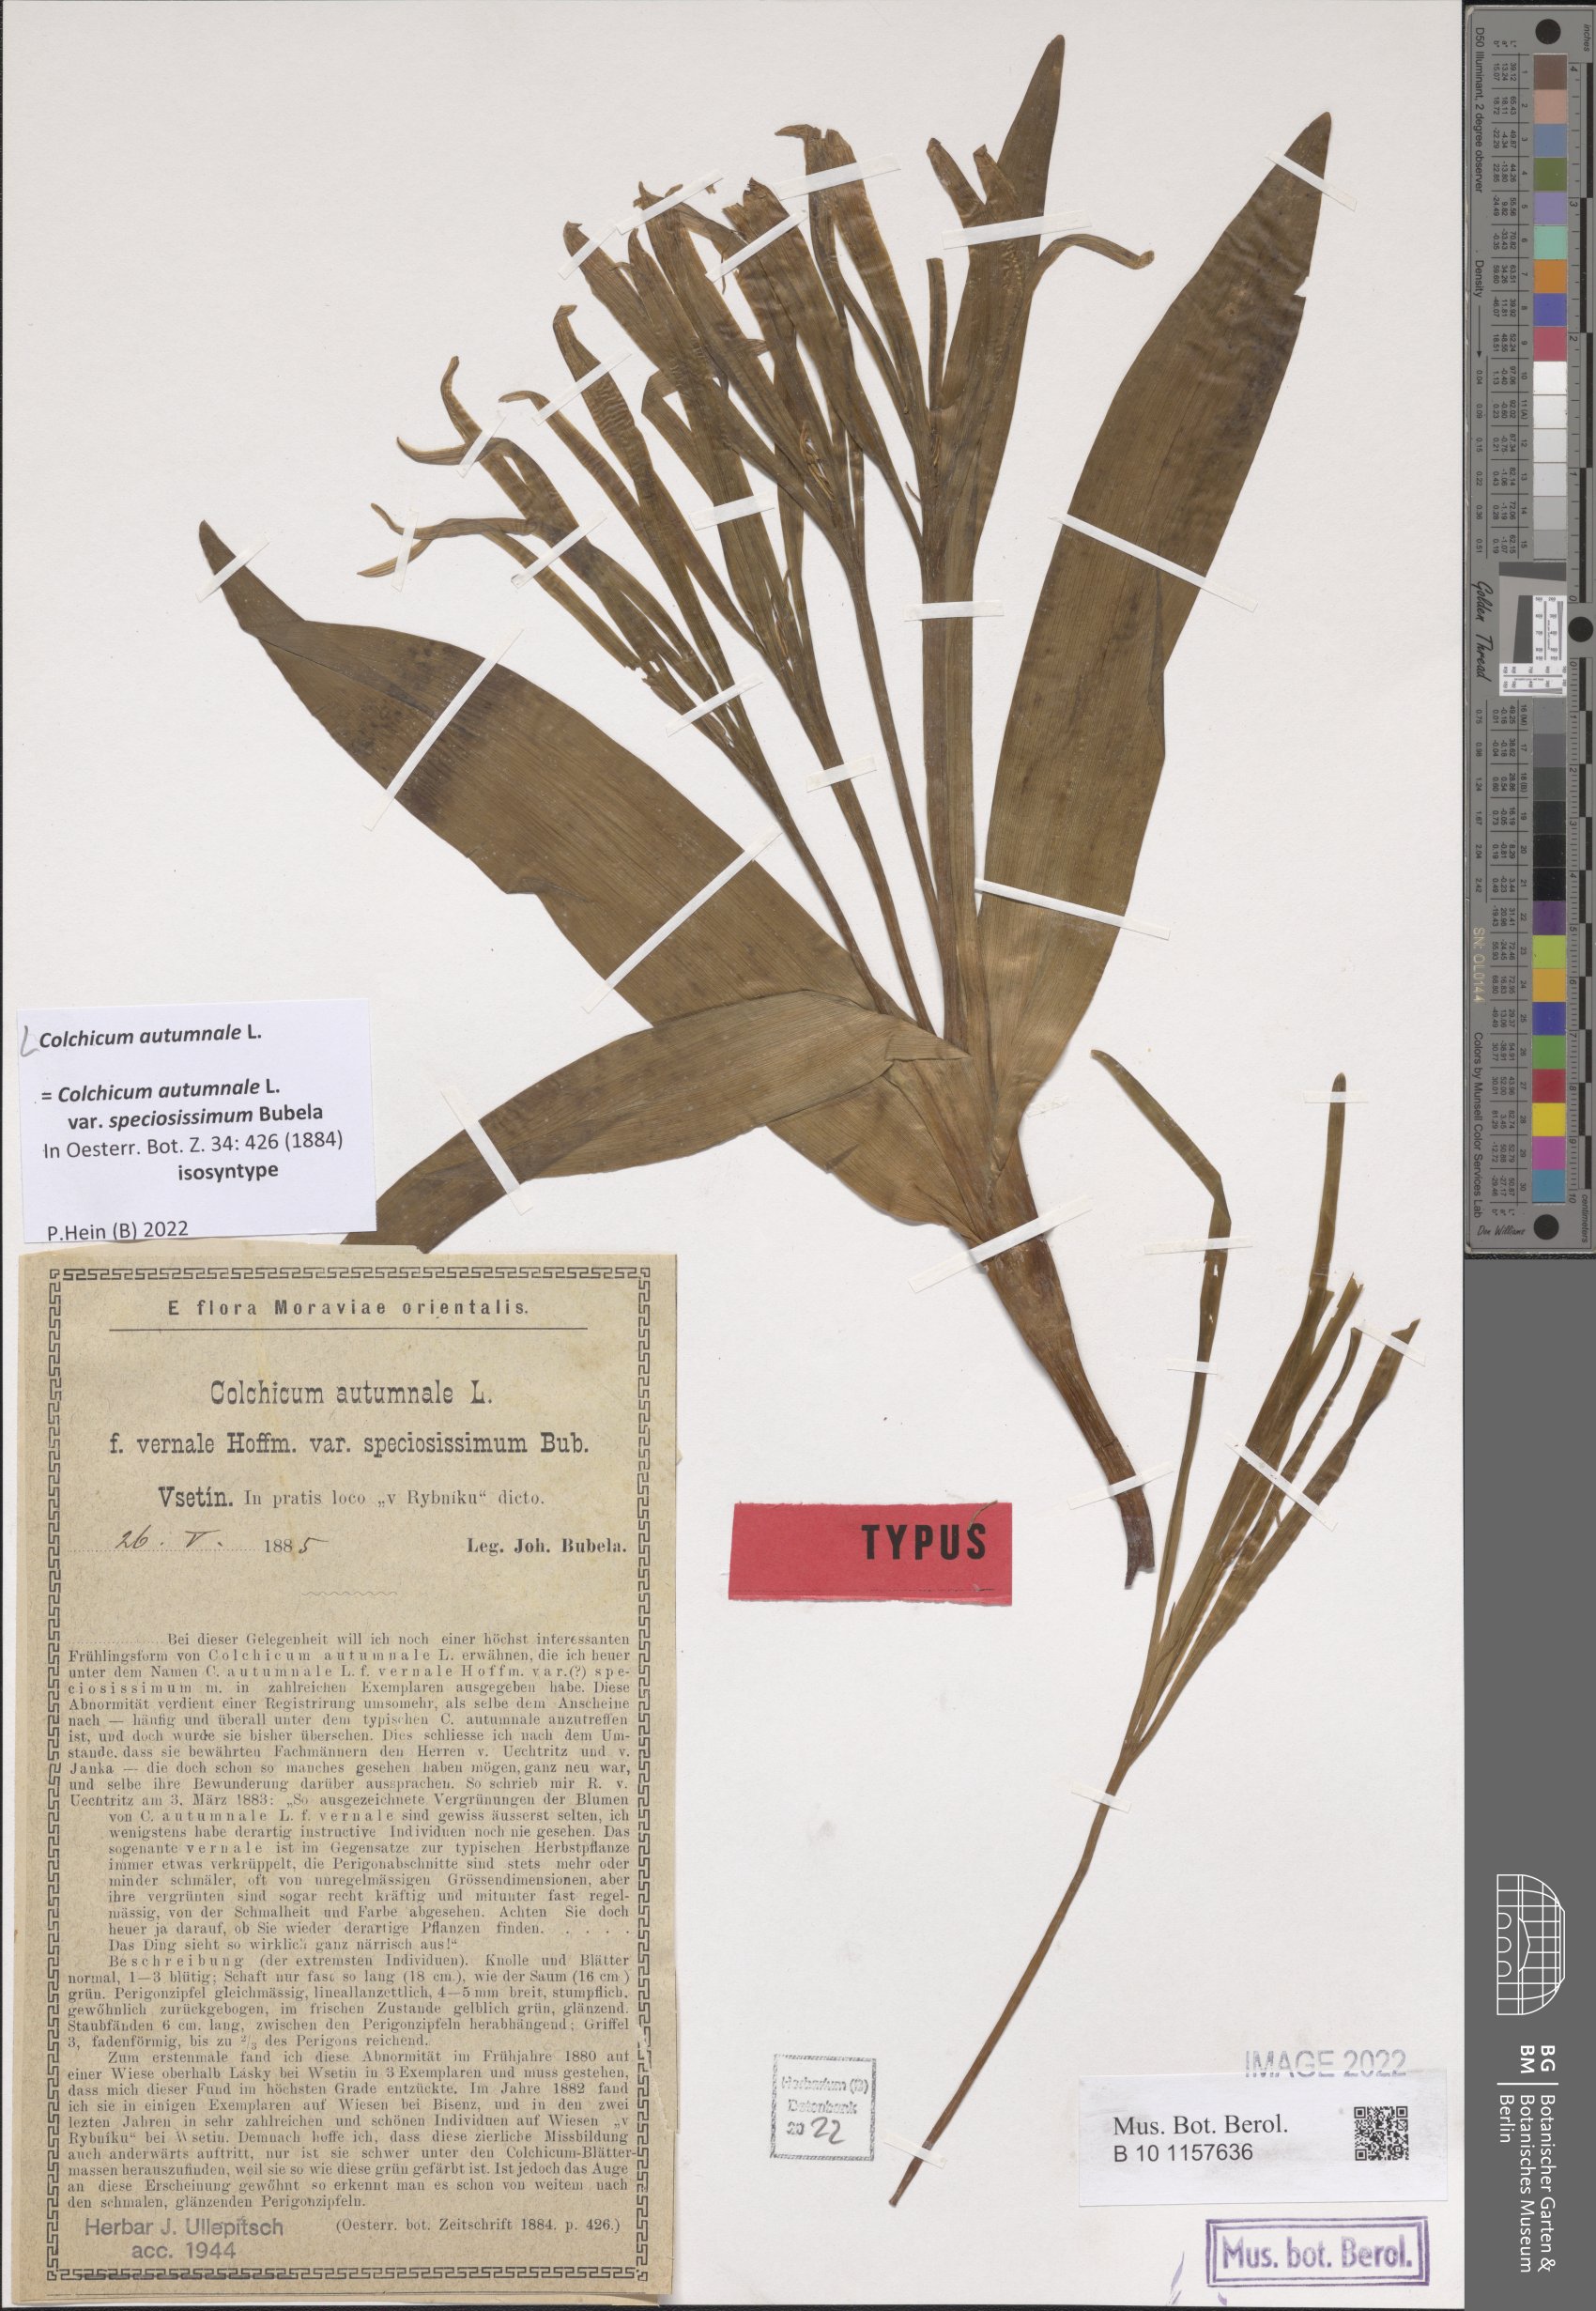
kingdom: Plantae
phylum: Tracheophyta
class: Liliopsida
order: Liliales
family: Colchicaceae
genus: Colchicum
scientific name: Colchicum autumnale
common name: Autumn crocus
